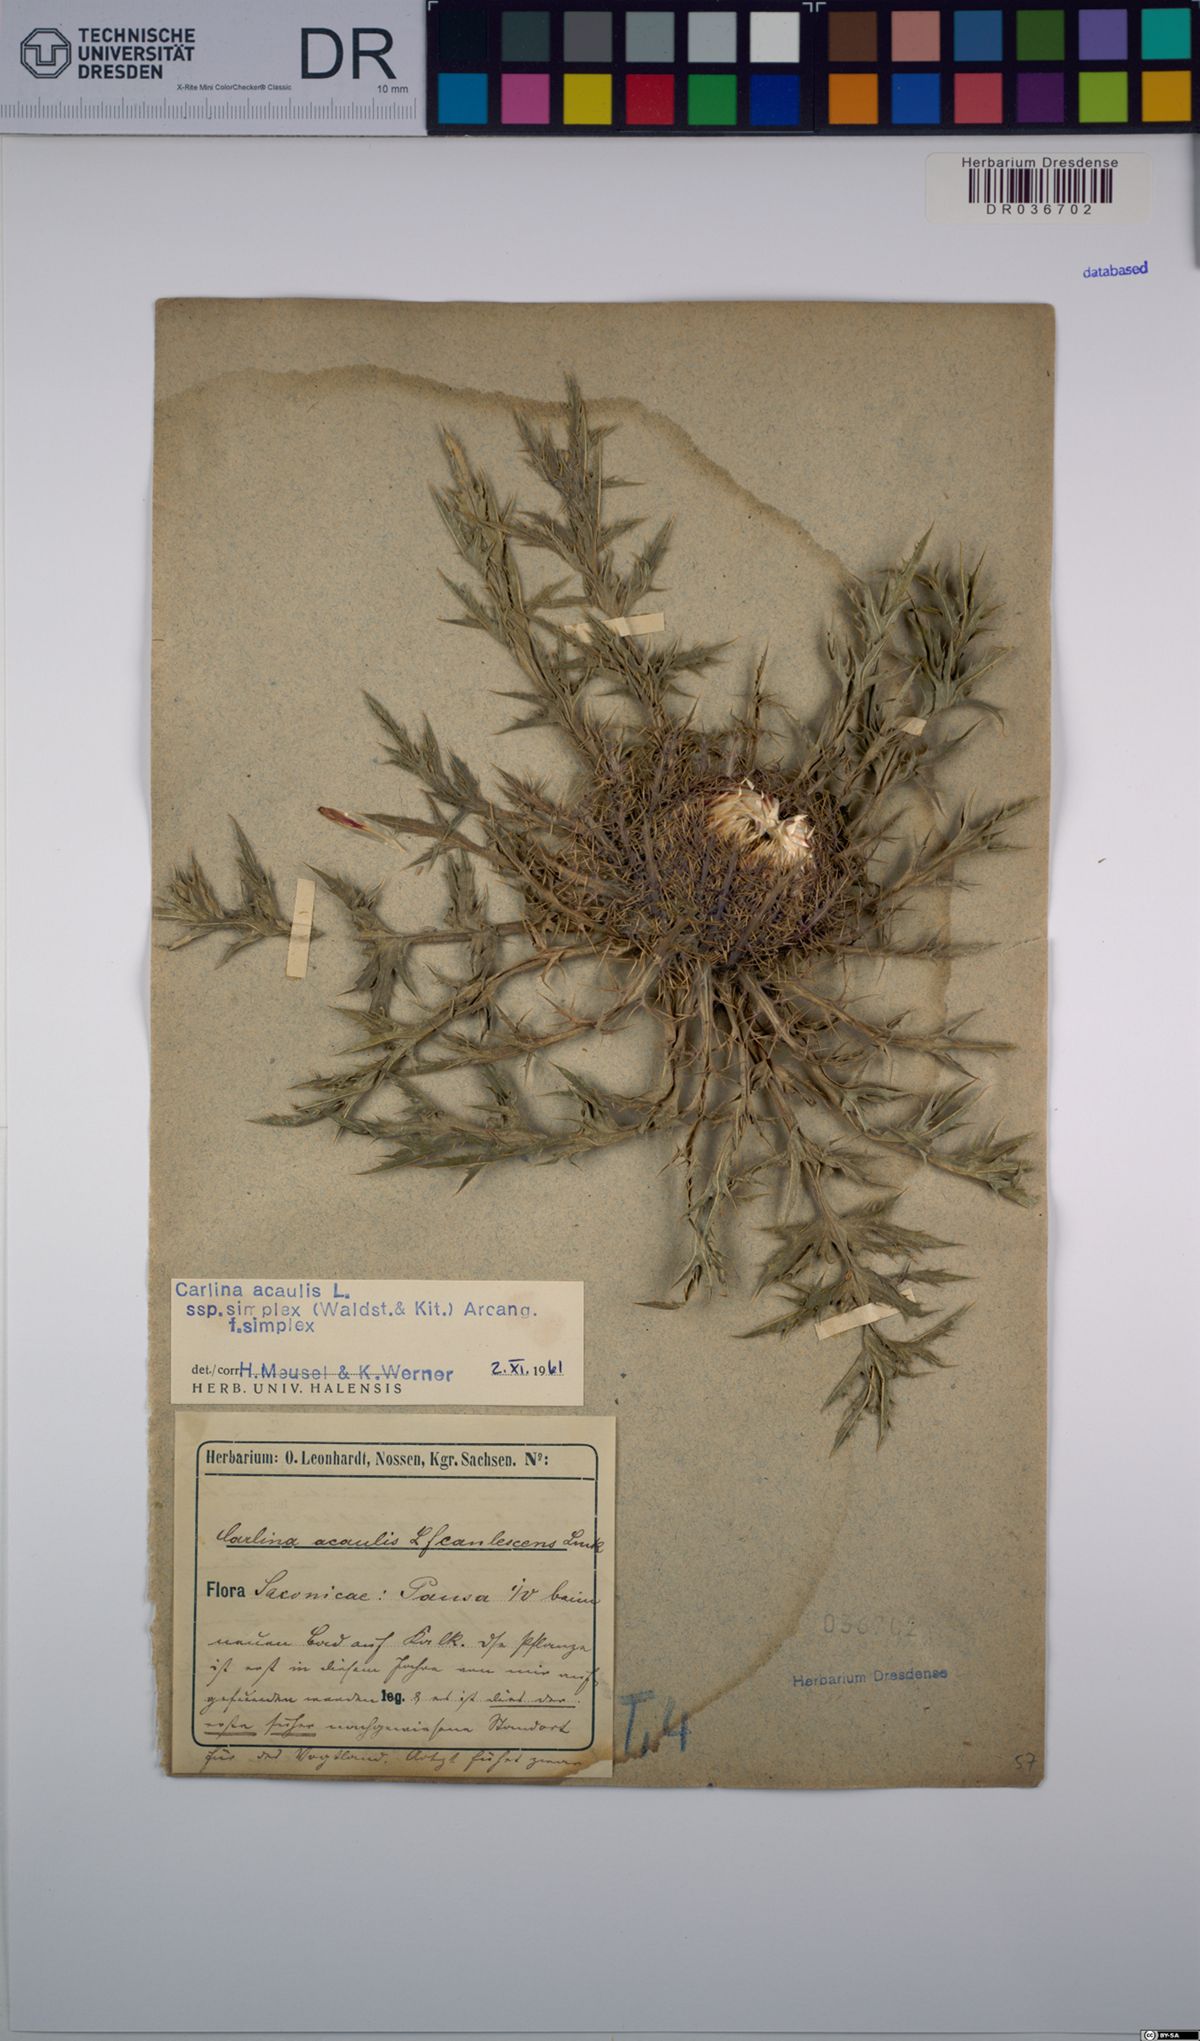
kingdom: Plantae
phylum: Tracheophyta
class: Magnoliopsida
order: Asterales
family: Asteraceae
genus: Carlina
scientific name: Carlina acaulis
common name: Stemless carline thistle
